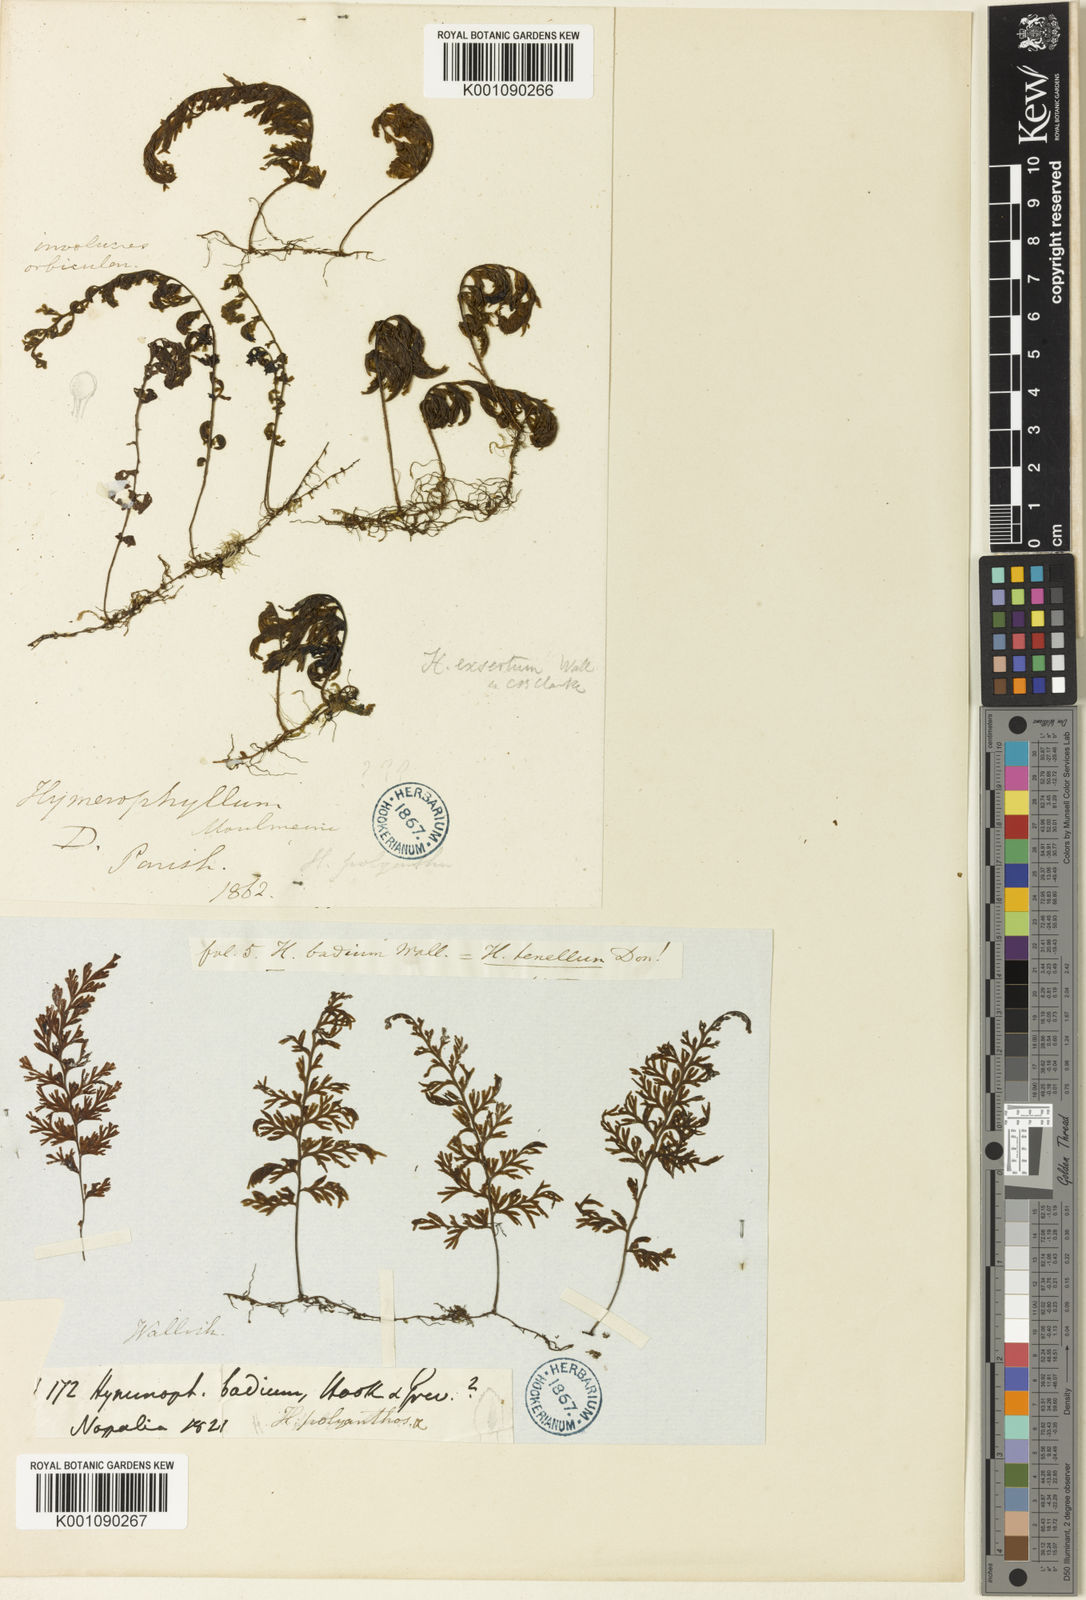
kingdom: Plantae
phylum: Tracheophyta
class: Polypodiopsida
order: Hymenophyllales
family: Hymenophyllaceae
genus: Hymenophyllum
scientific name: Hymenophyllum polyanthos
